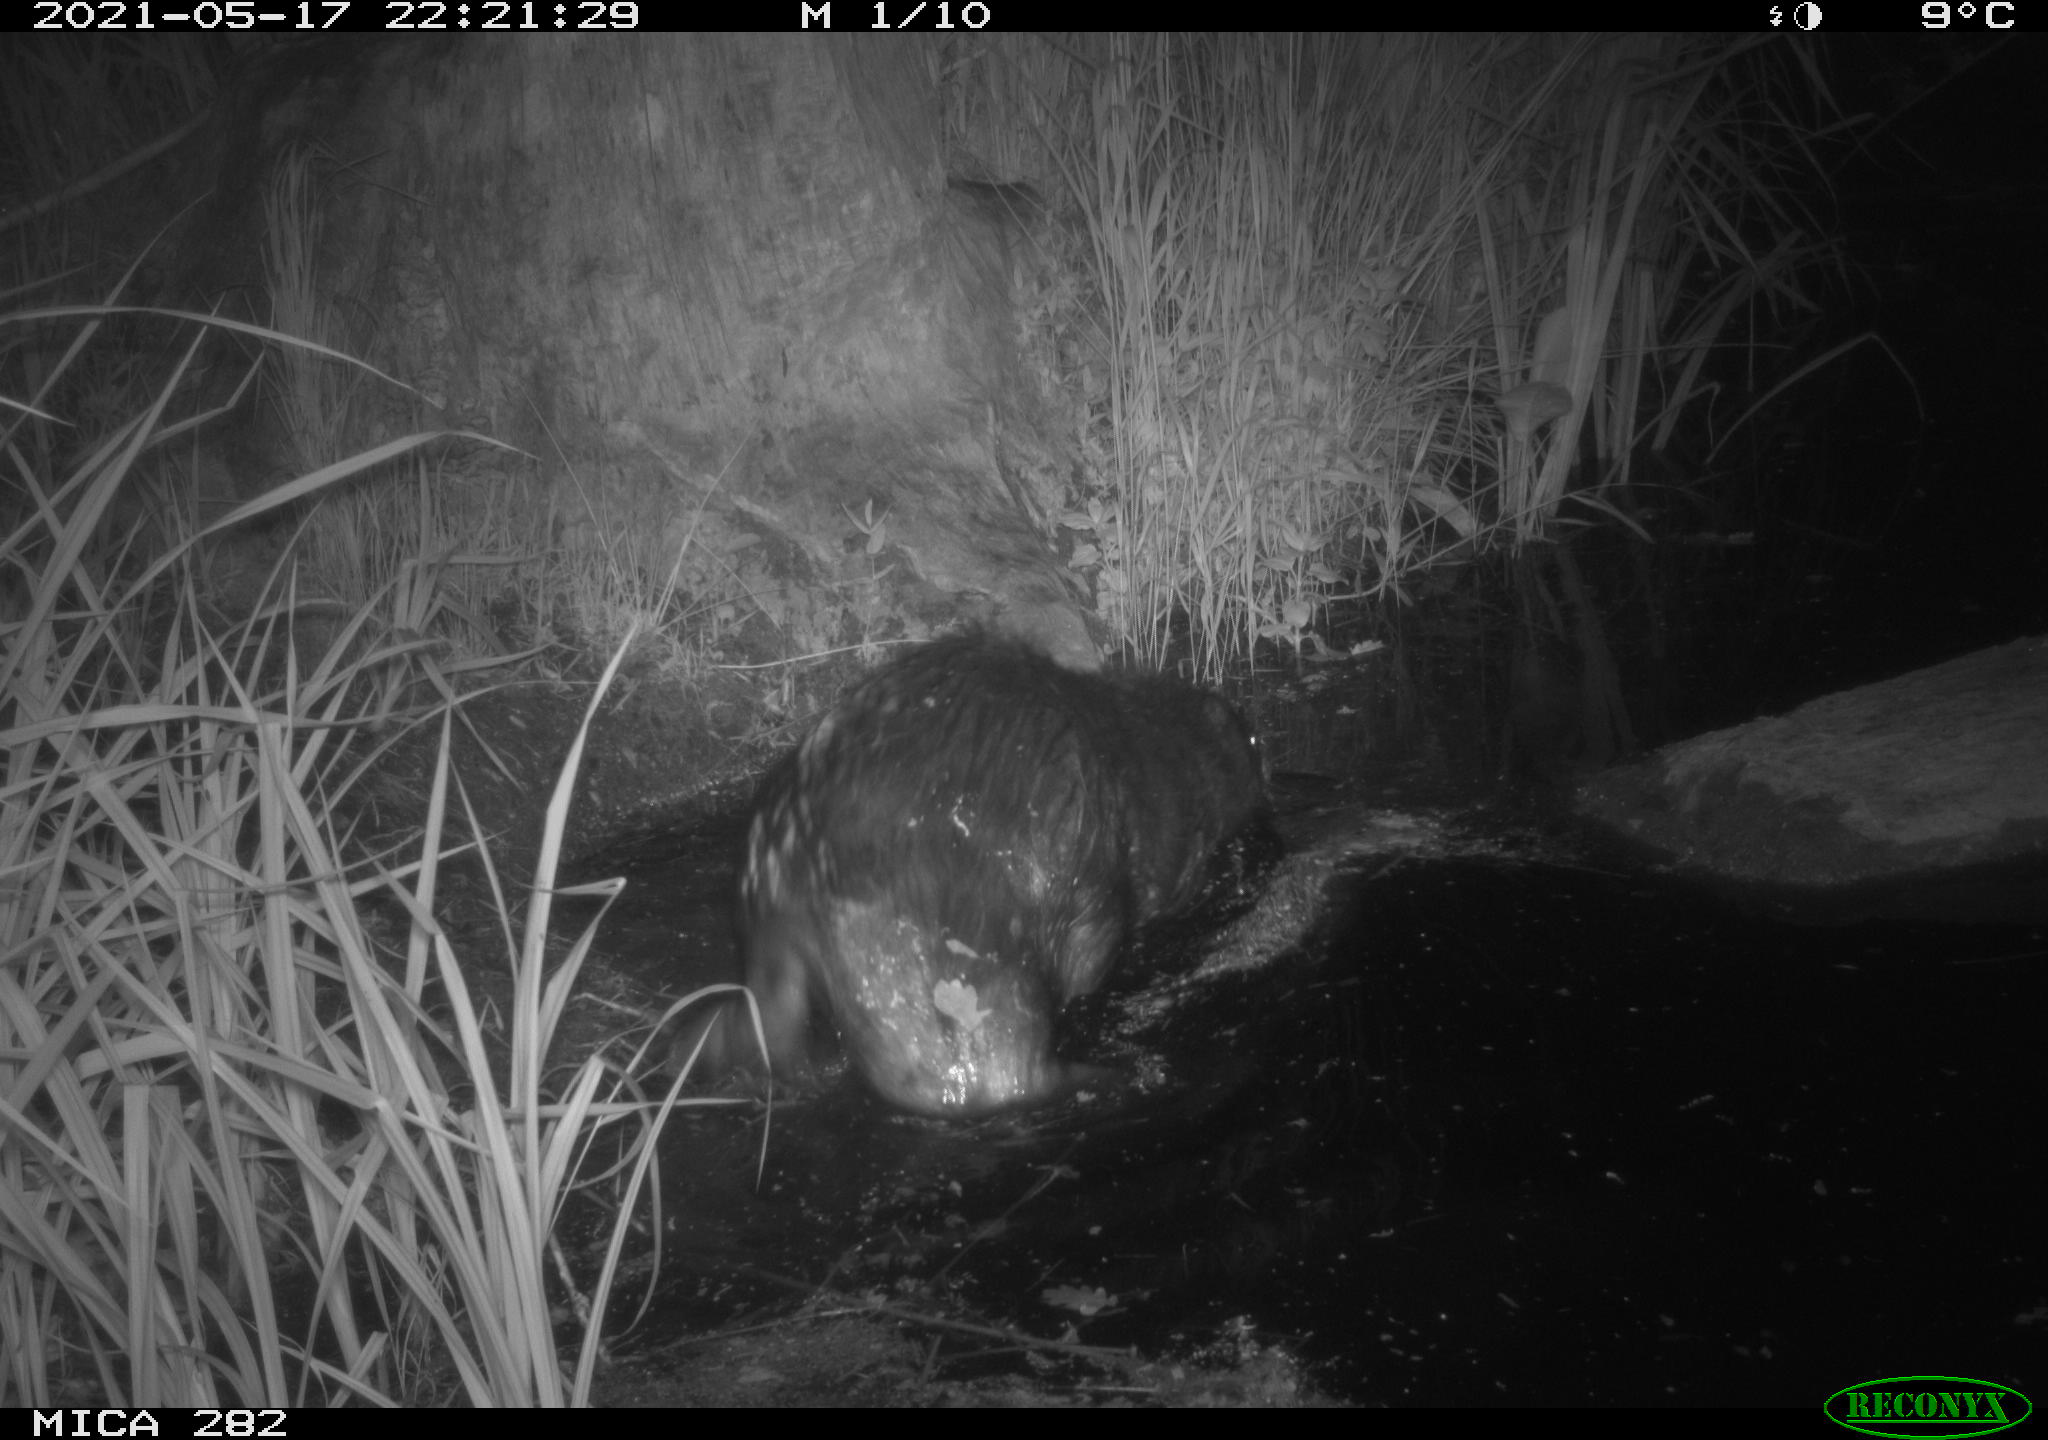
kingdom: Animalia
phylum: Chordata
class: Mammalia
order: Rodentia
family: Castoridae
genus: Castor
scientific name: Castor fiber
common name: Eurasian beaver
